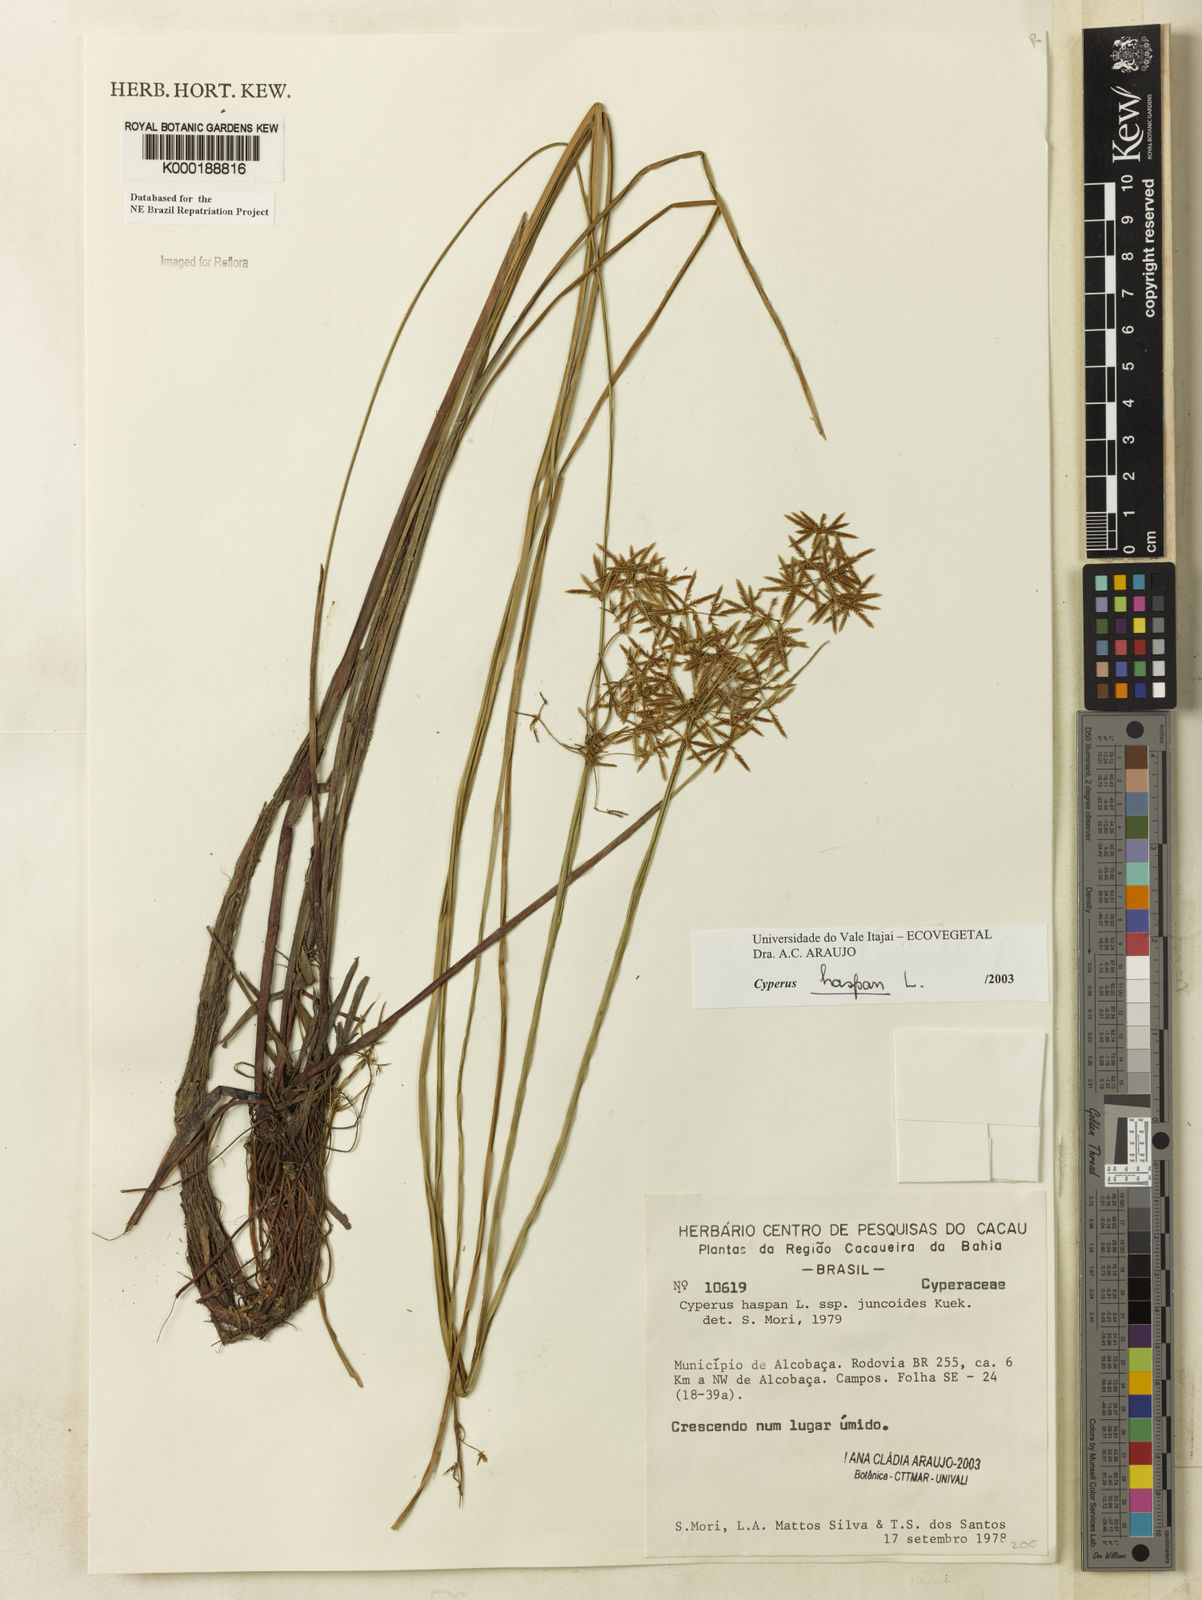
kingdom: Plantae
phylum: Tracheophyta
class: Liliopsida
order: Poales
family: Cyperaceae
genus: Cyperus
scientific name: Cyperus haspan
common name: Haspan flatsedge
